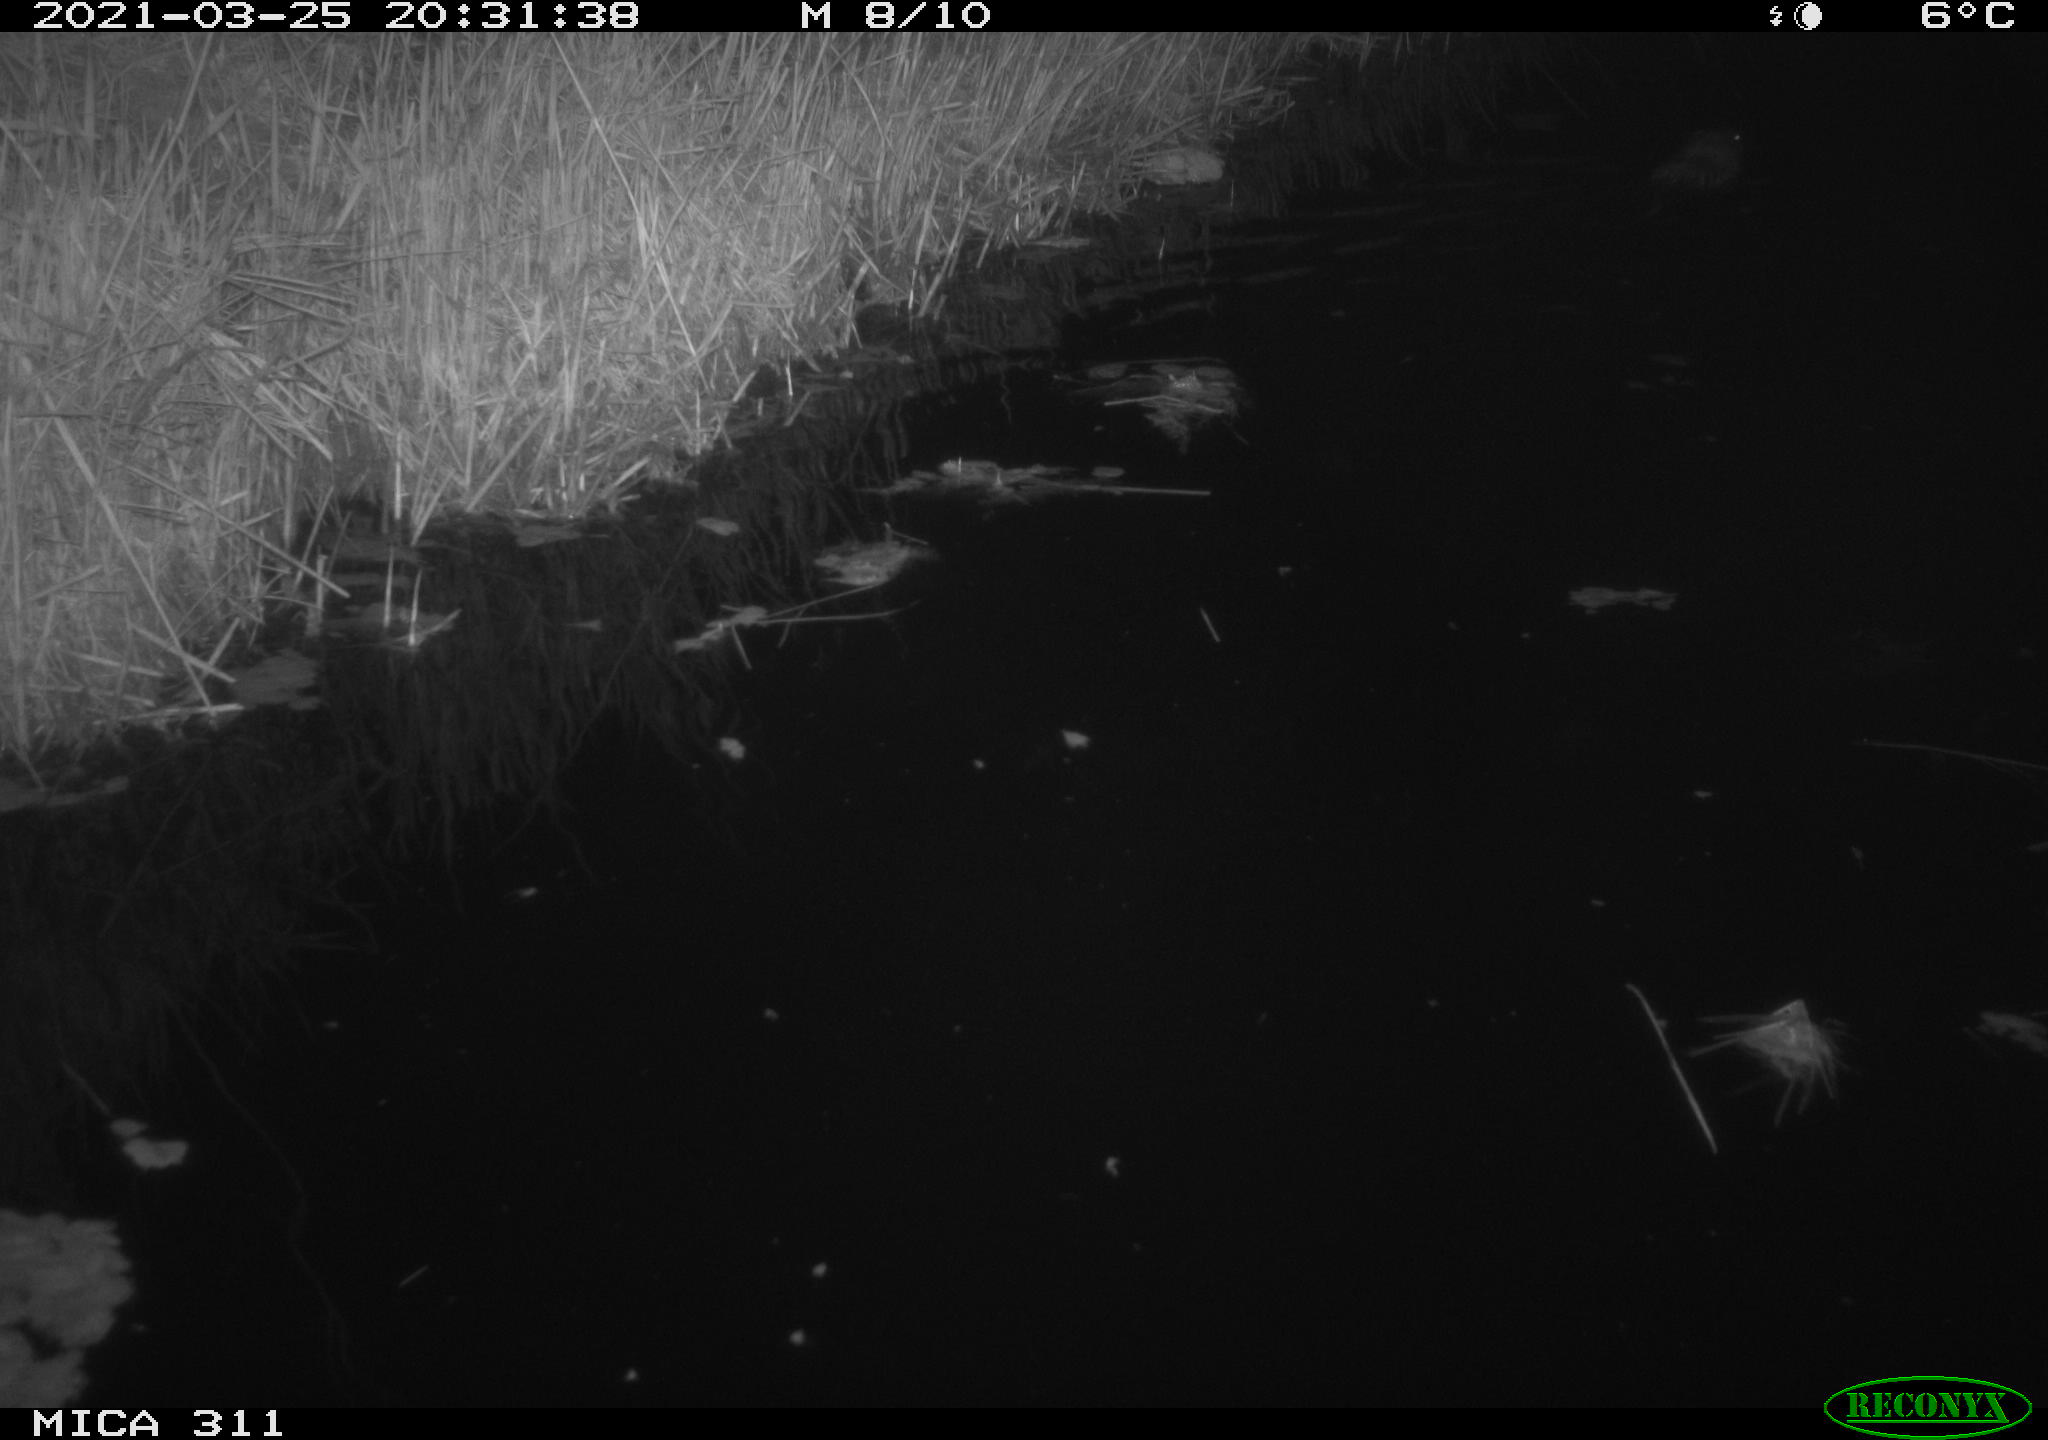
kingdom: Animalia
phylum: Chordata
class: Mammalia
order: Rodentia
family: Cricetidae
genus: Ondatra
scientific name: Ondatra zibethicus
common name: Muskrat
